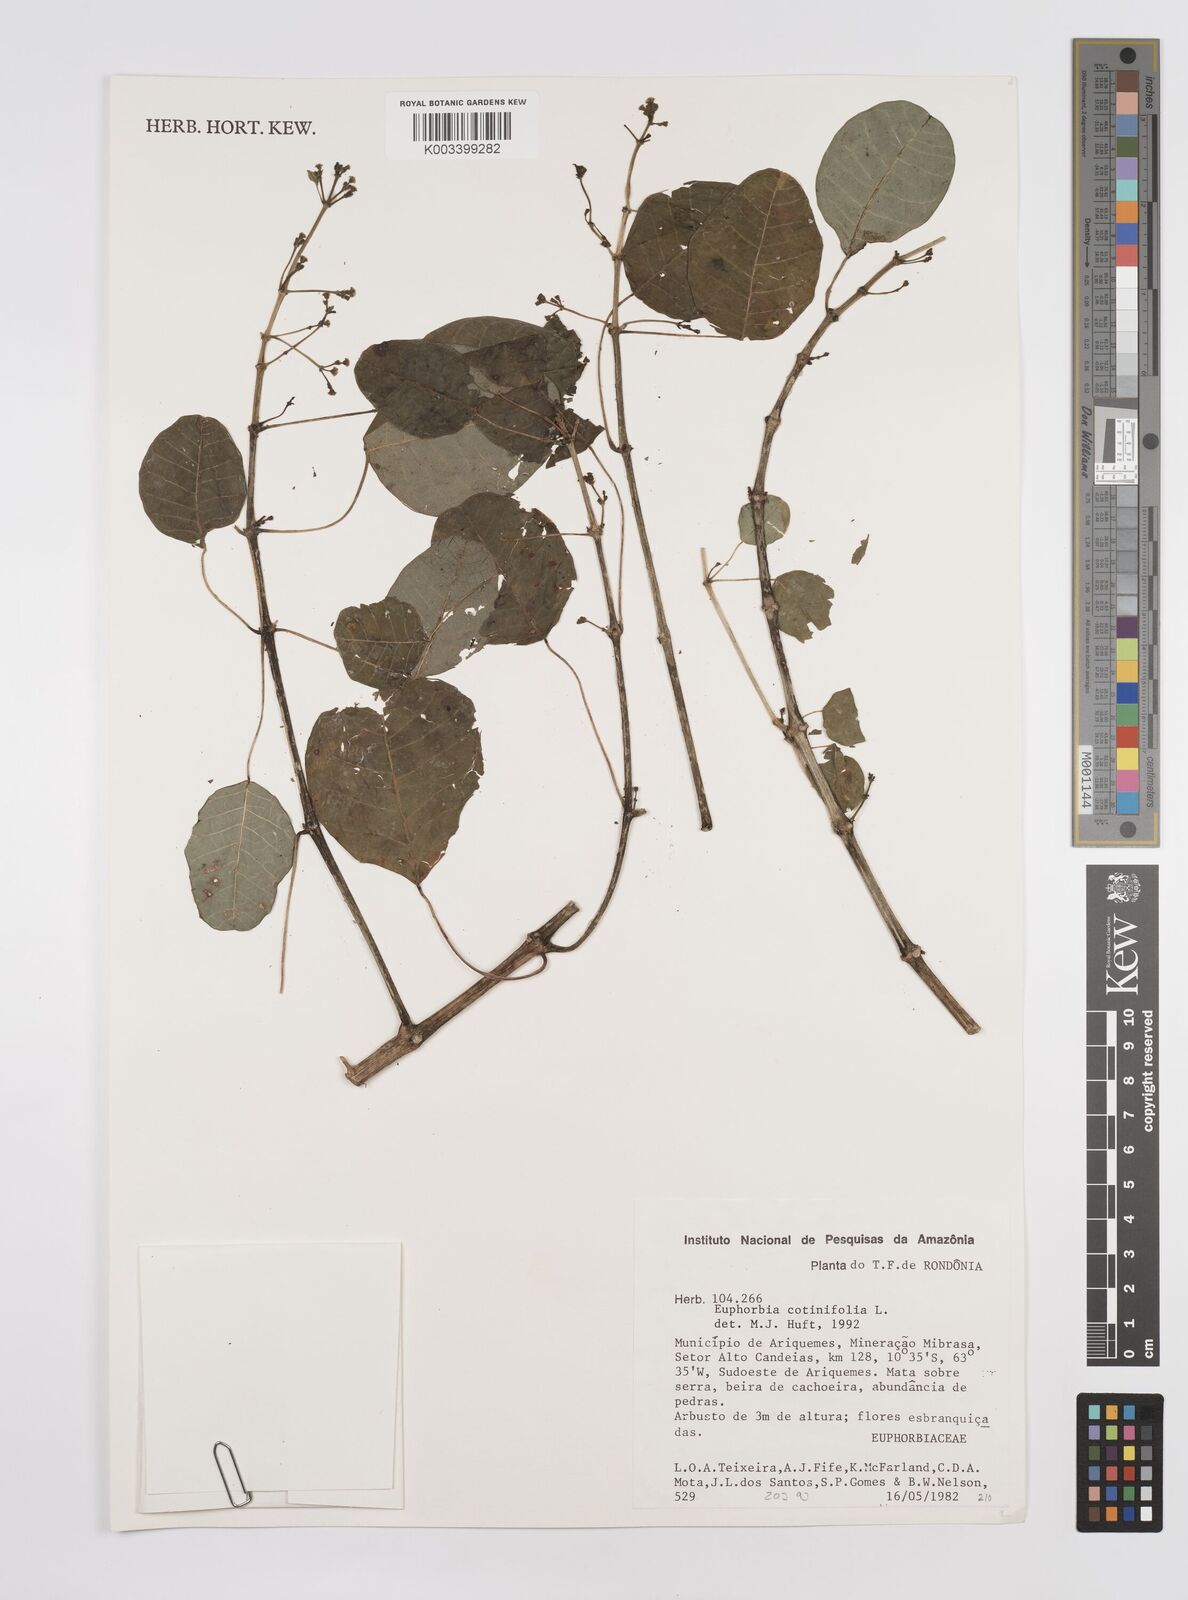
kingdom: Plantae
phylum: Tracheophyta
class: Magnoliopsida
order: Malpighiales
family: Euphorbiaceae
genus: Euphorbia
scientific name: Euphorbia cotinifolia
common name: Tropical smokebush
